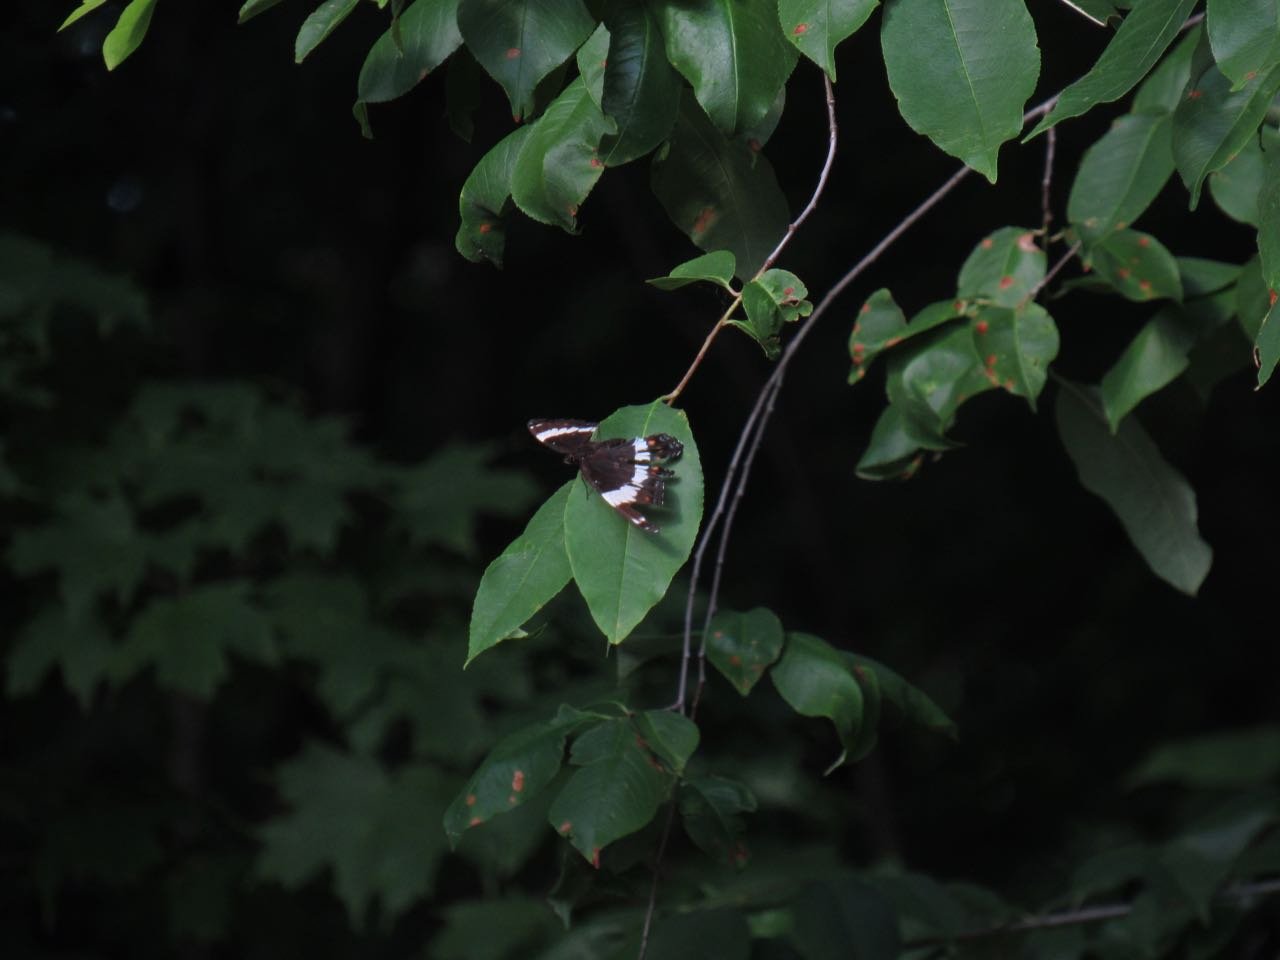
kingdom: Animalia
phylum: Arthropoda
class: Insecta
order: Lepidoptera
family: Nymphalidae
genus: Limenitis
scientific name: Limenitis arthemis
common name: Red-spotted Admiral
